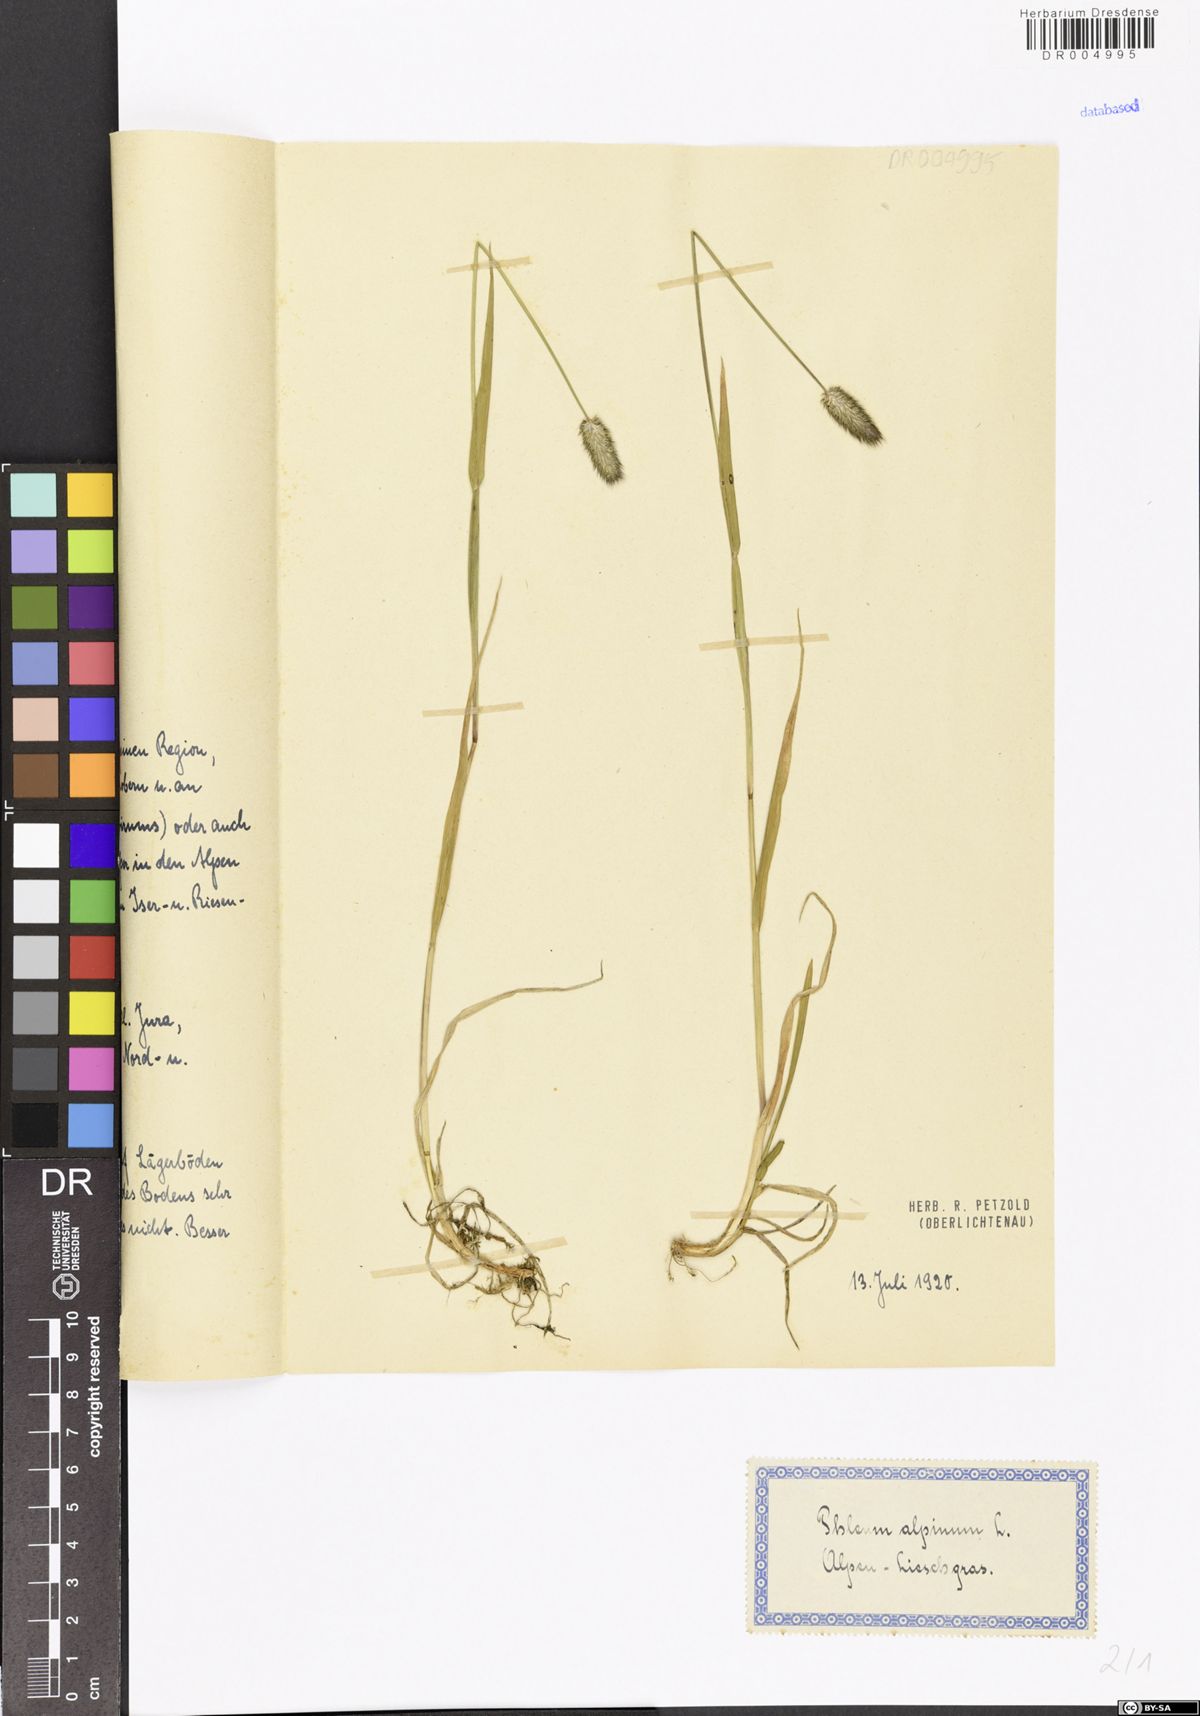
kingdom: Plantae
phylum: Tracheophyta
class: Liliopsida
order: Poales
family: Poaceae
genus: Phleum
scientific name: Phleum alpinum
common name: Alpine cat's-tail
